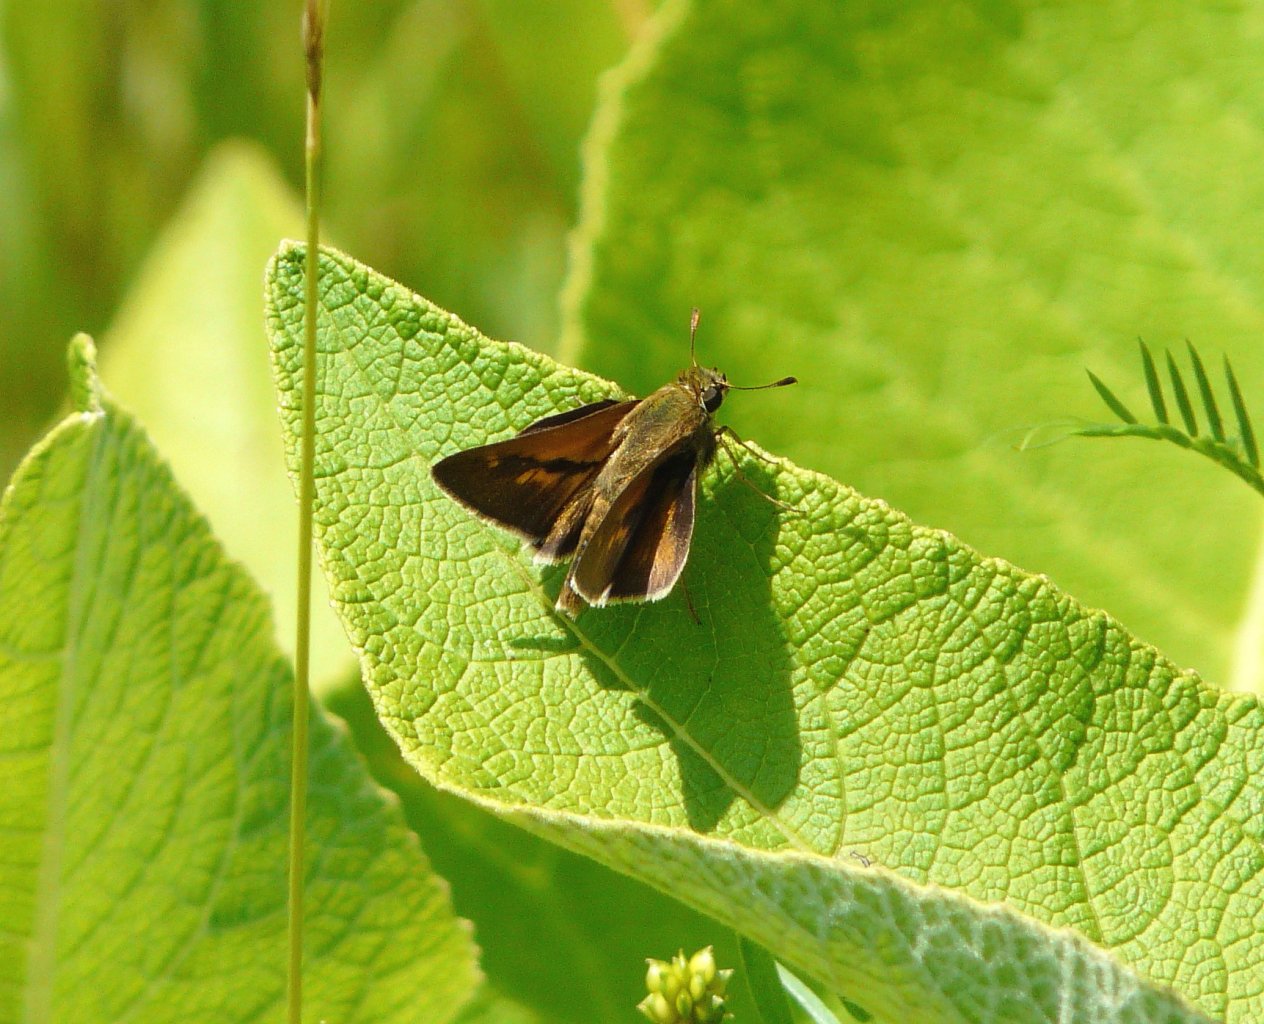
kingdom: Animalia
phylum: Arthropoda
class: Insecta
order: Lepidoptera
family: Hesperiidae
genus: Polites
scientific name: Polites
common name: Crossline Skipper
